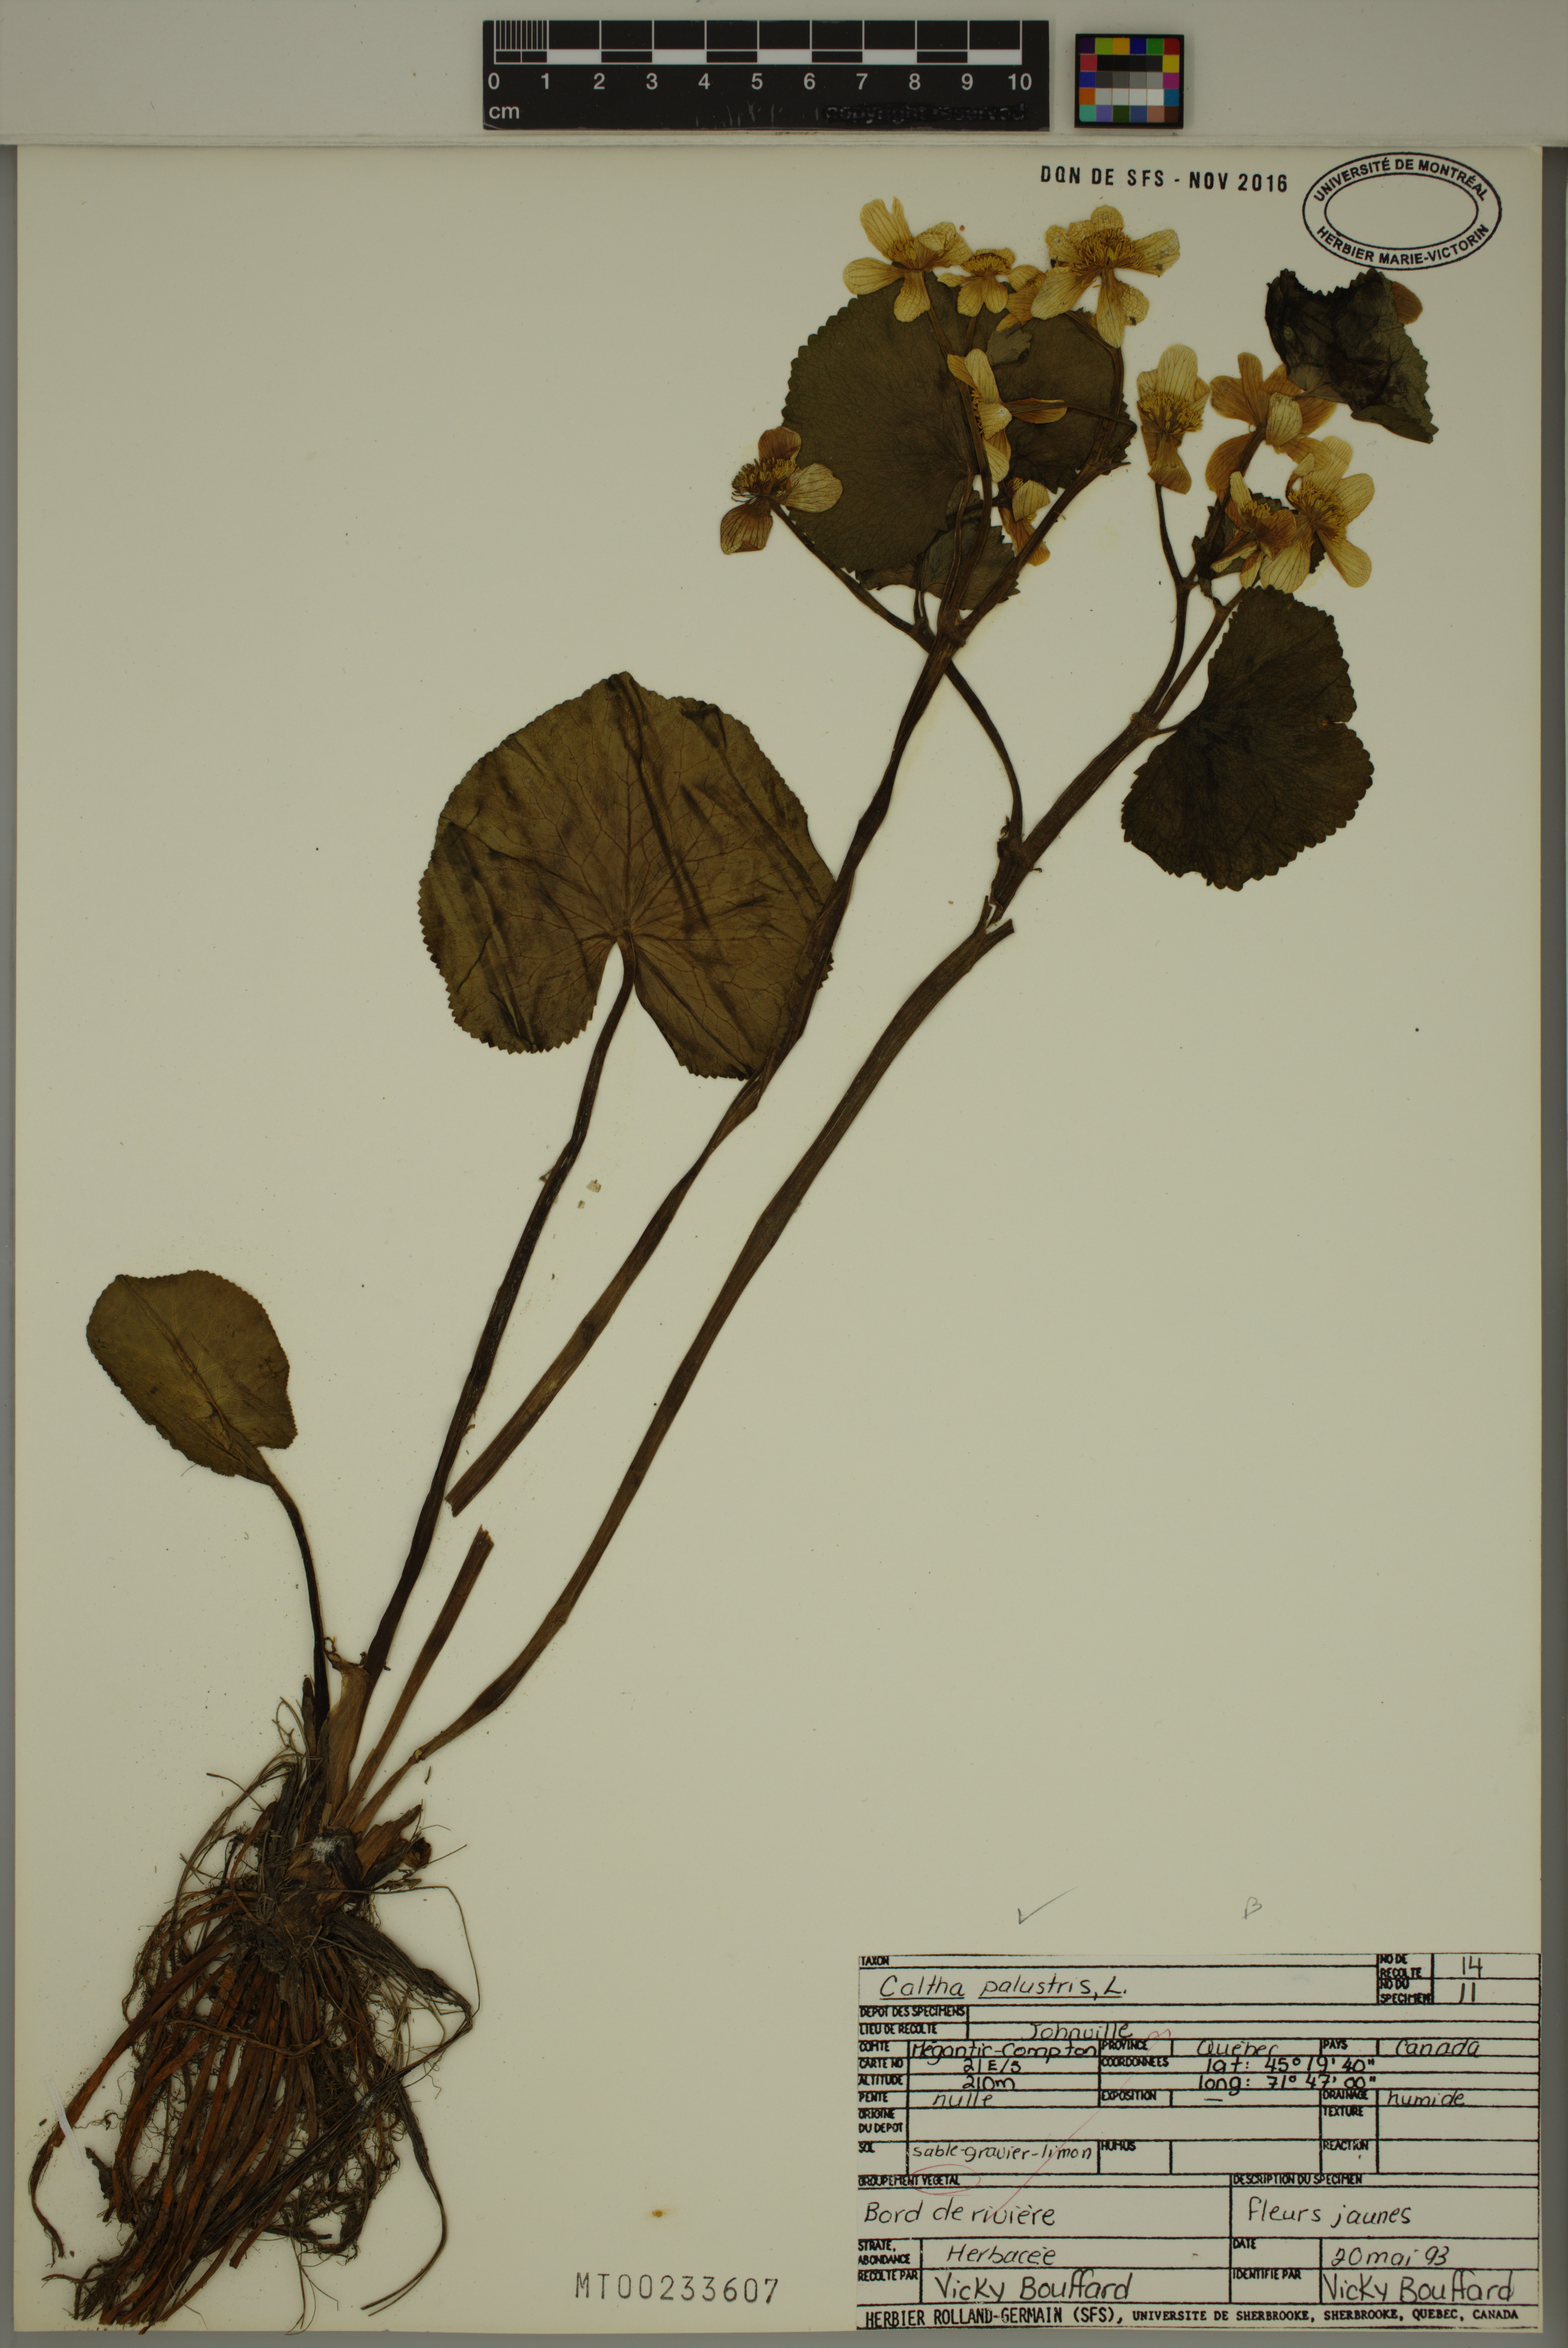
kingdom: Plantae
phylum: Tracheophyta
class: Magnoliopsida
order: Ranunculales
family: Ranunculaceae
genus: Caltha
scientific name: Caltha palustris
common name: Marsh marigold
